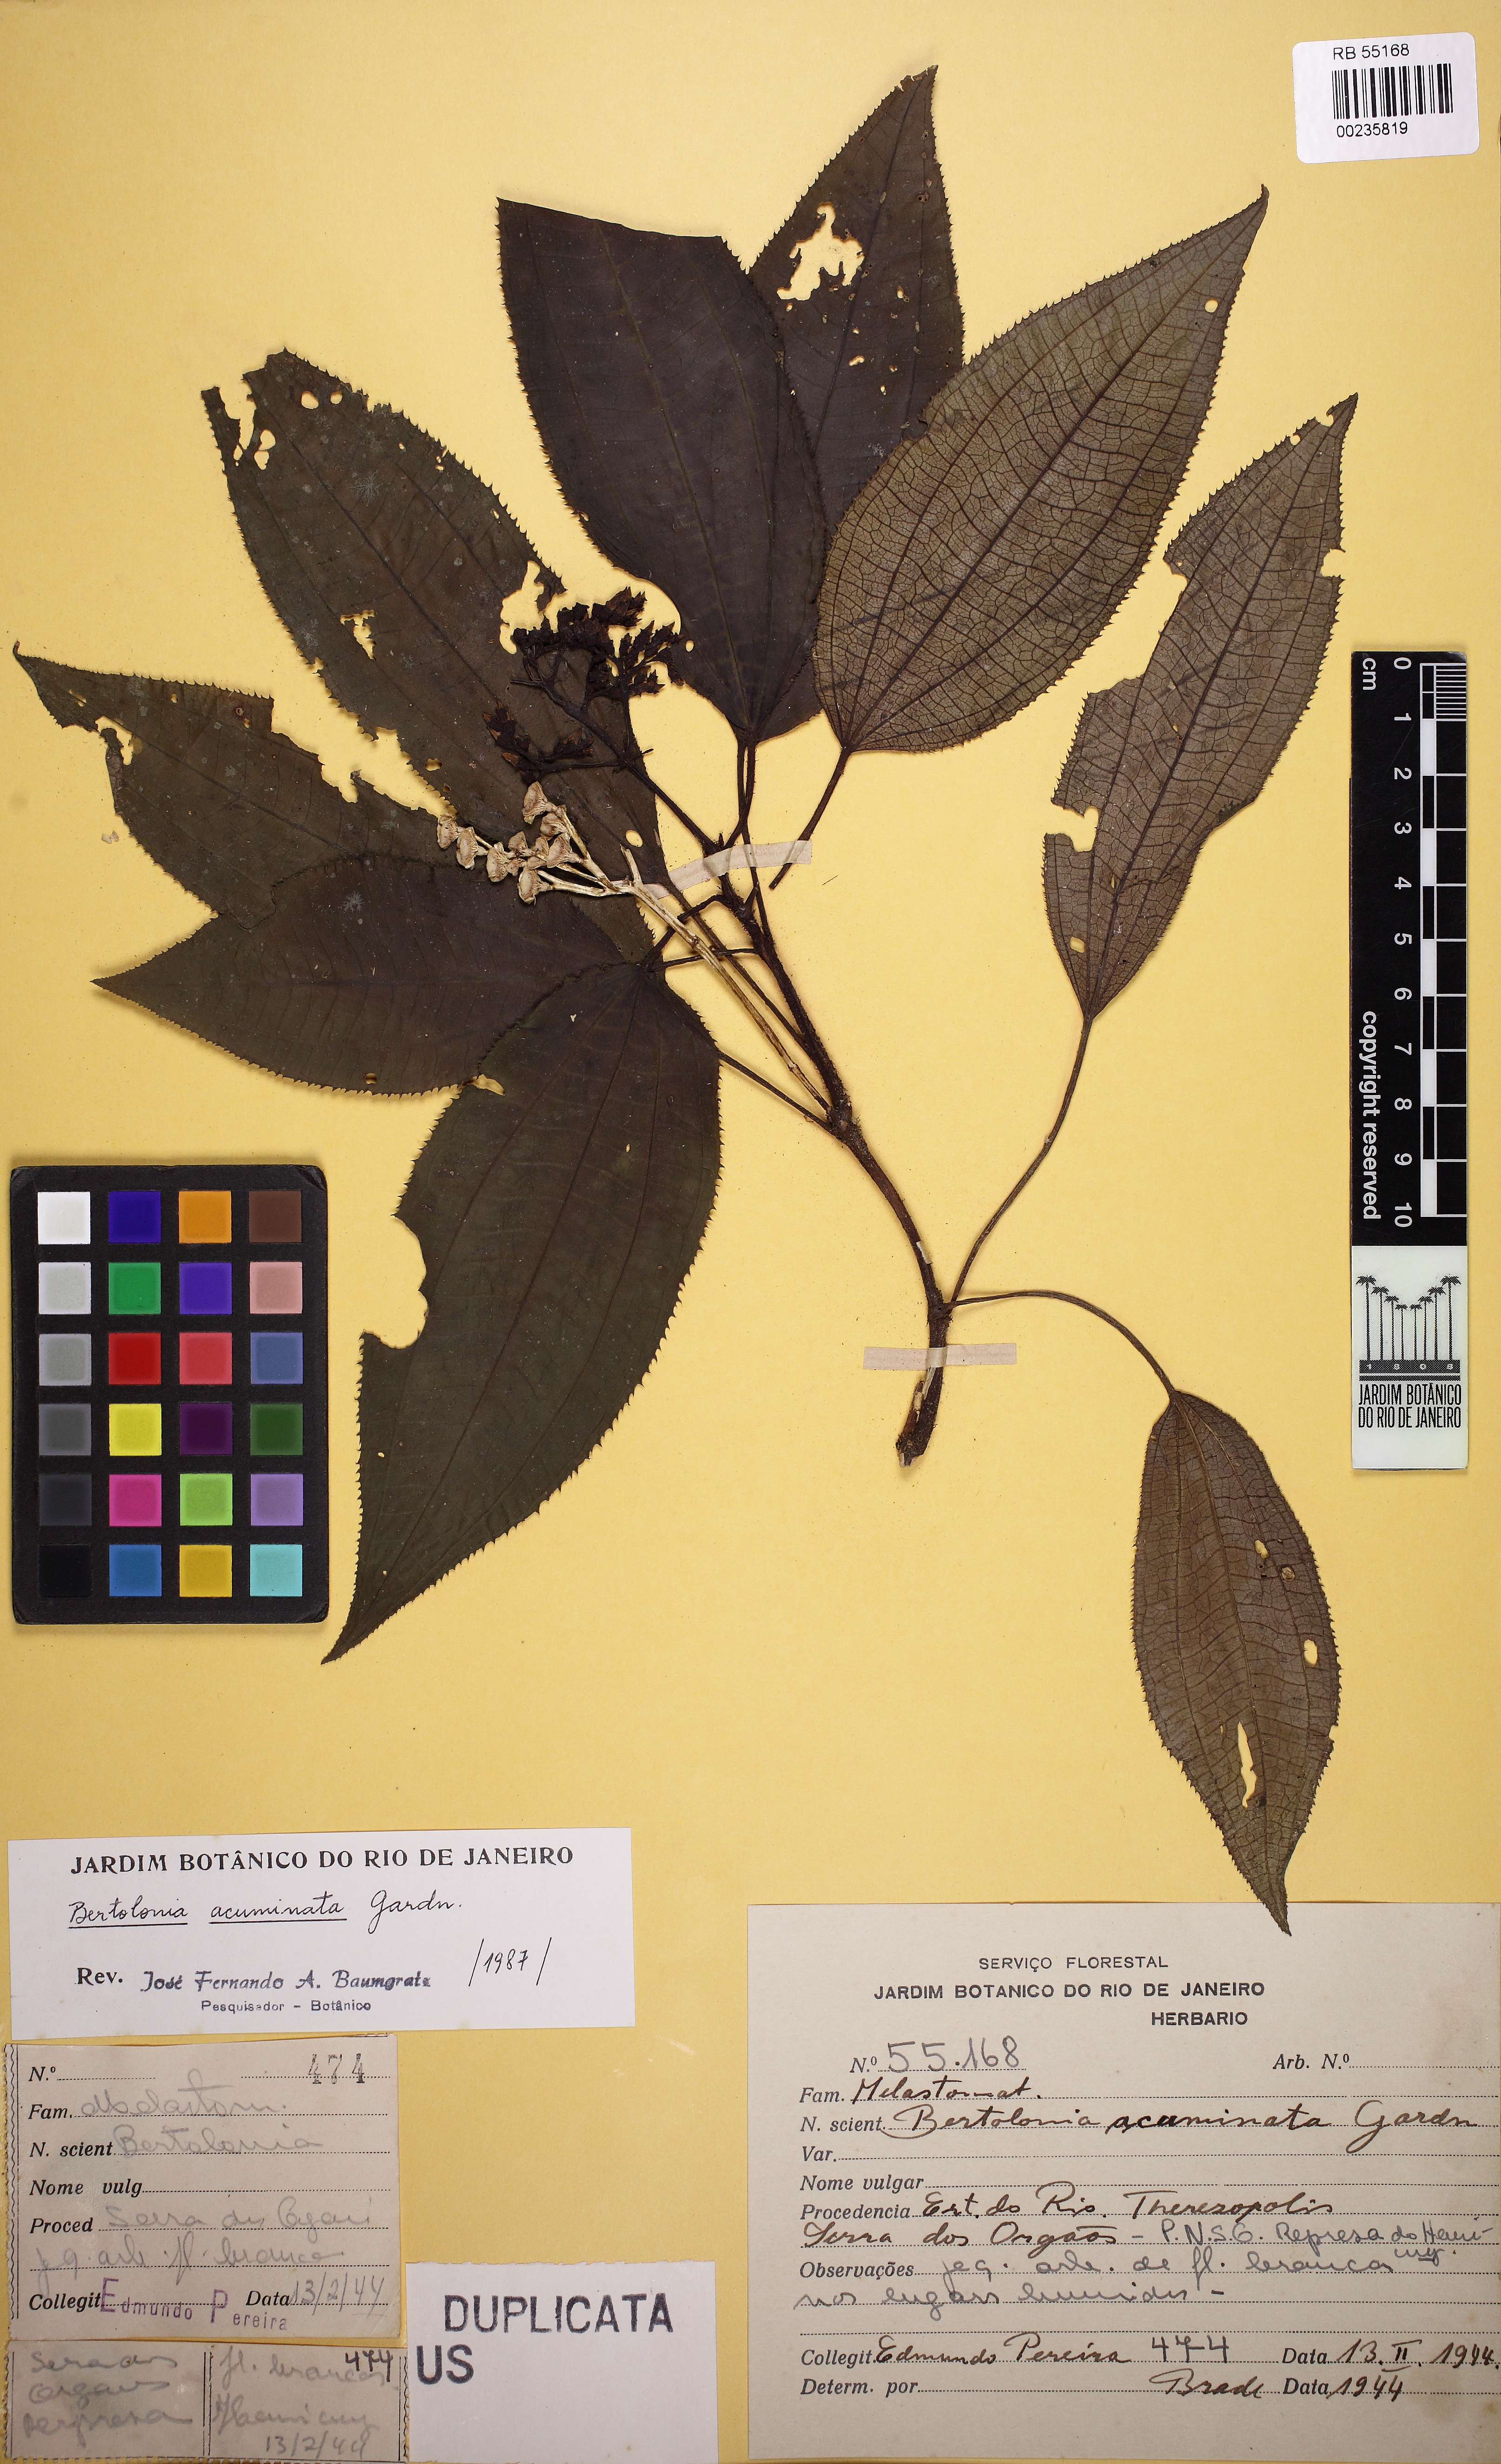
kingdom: Plantae
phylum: Tracheophyta
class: Magnoliopsida
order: Myrtales
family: Melastomataceae
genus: Bertolonia
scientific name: Bertolonia acuminata
